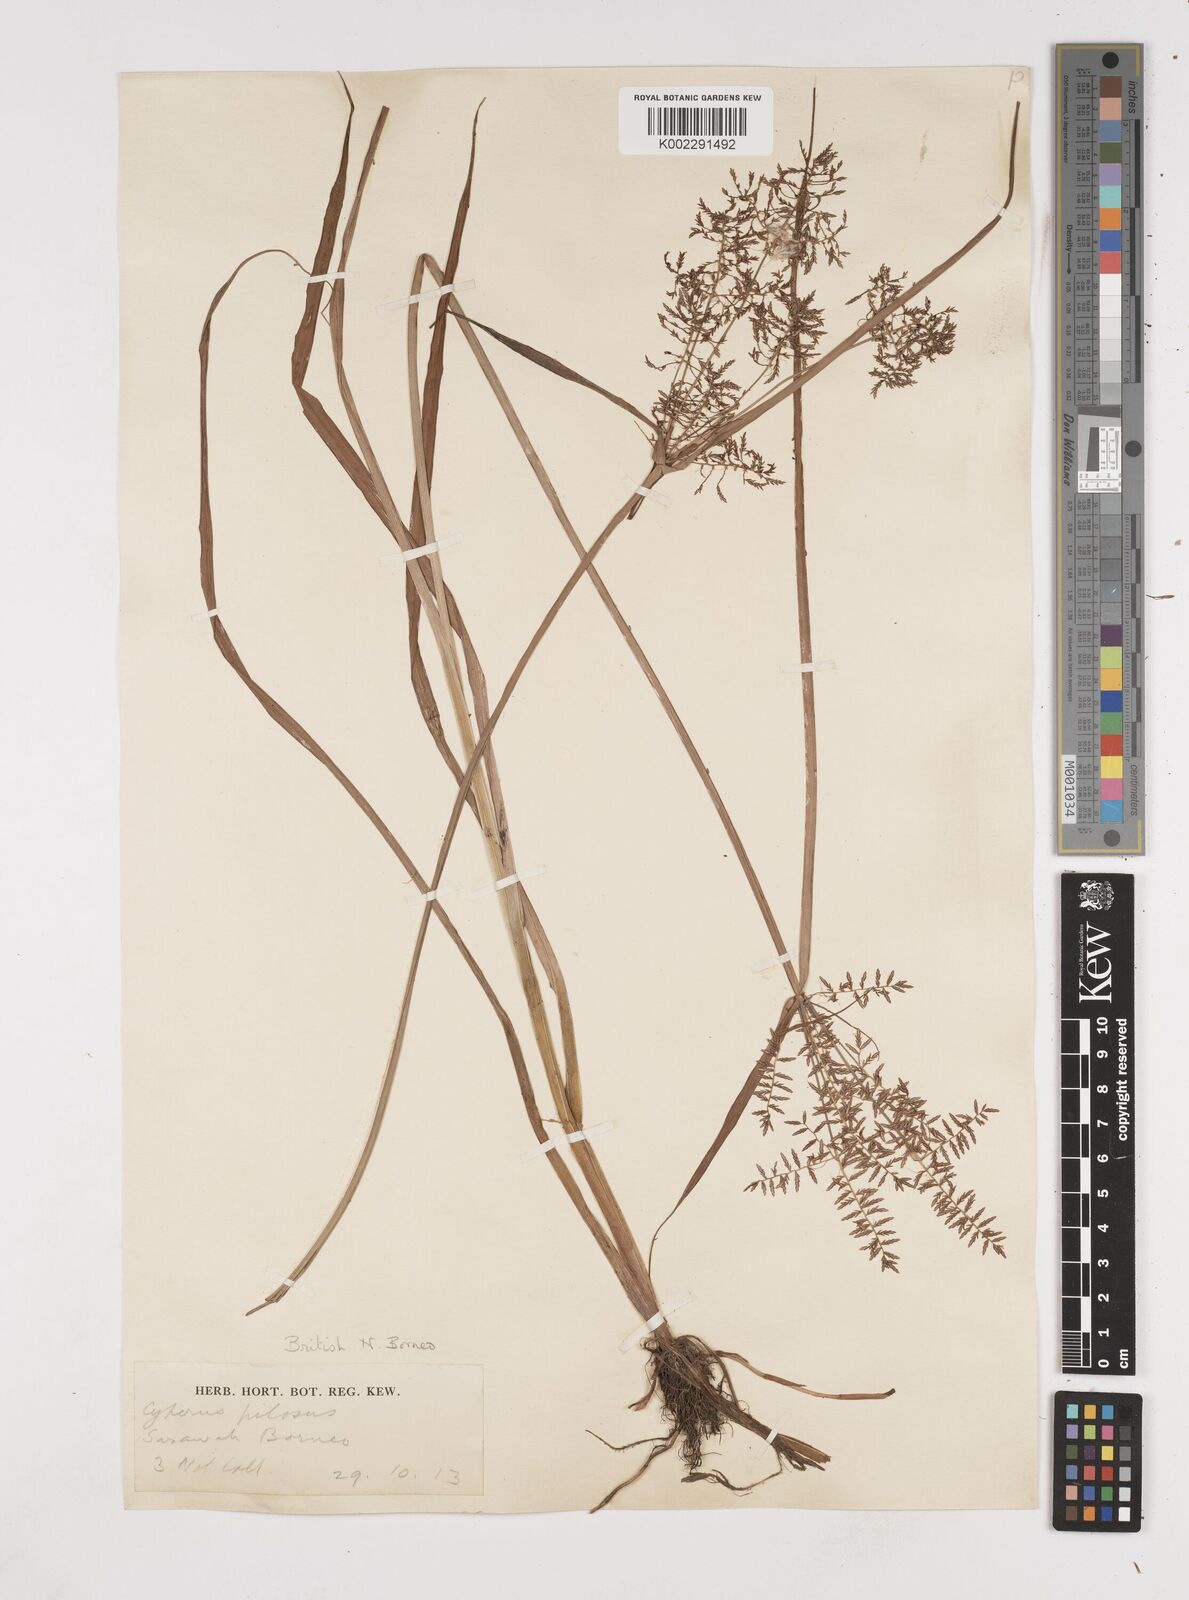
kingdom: Plantae
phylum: Tracheophyta
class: Liliopsida
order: Poales
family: Cyperaceae
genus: Cyperus
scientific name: Cyperus pilosus
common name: Fuzzy flatsedge
